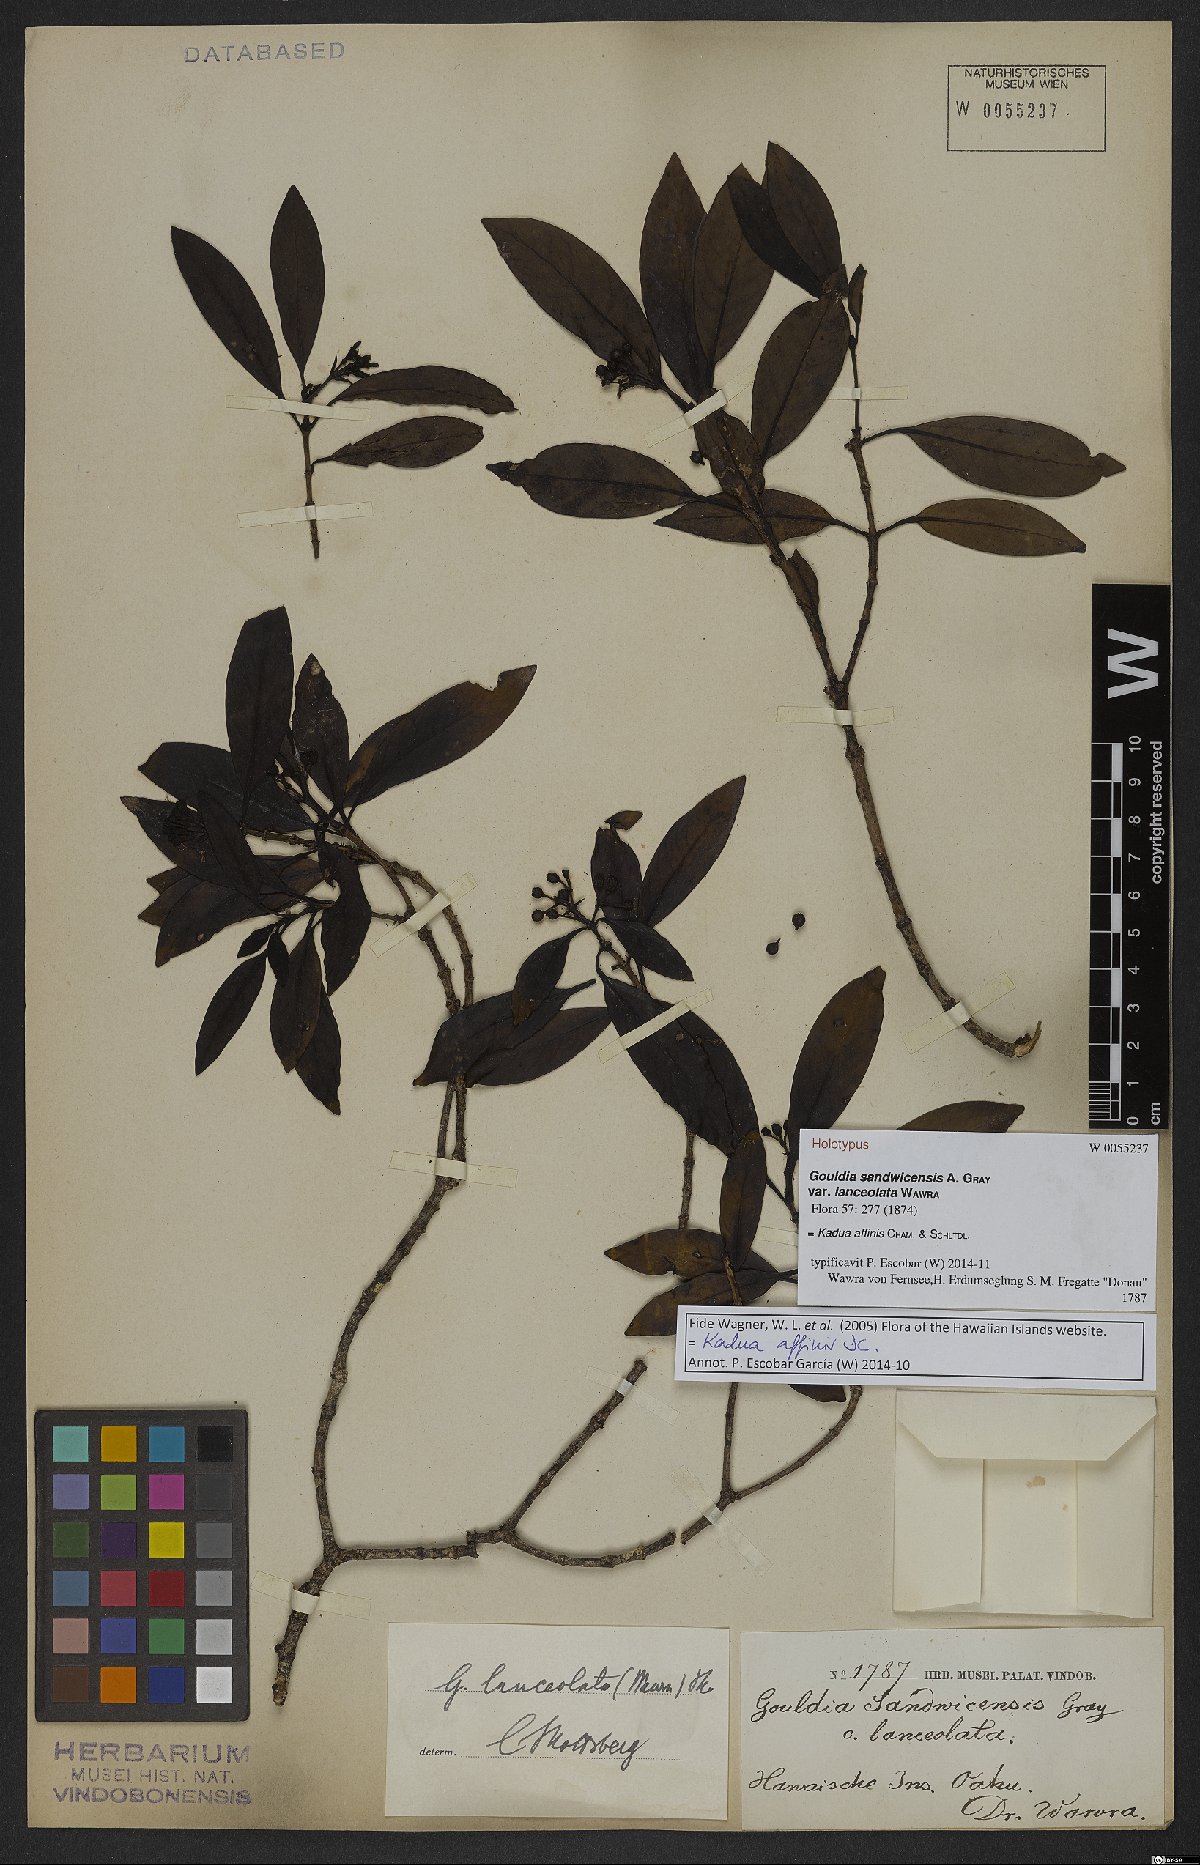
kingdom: Plantae
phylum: Tracheophyta
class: Magnoliopsida
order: Gentianales
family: Rubiaceae
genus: Kadua
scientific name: Kadua affinis
